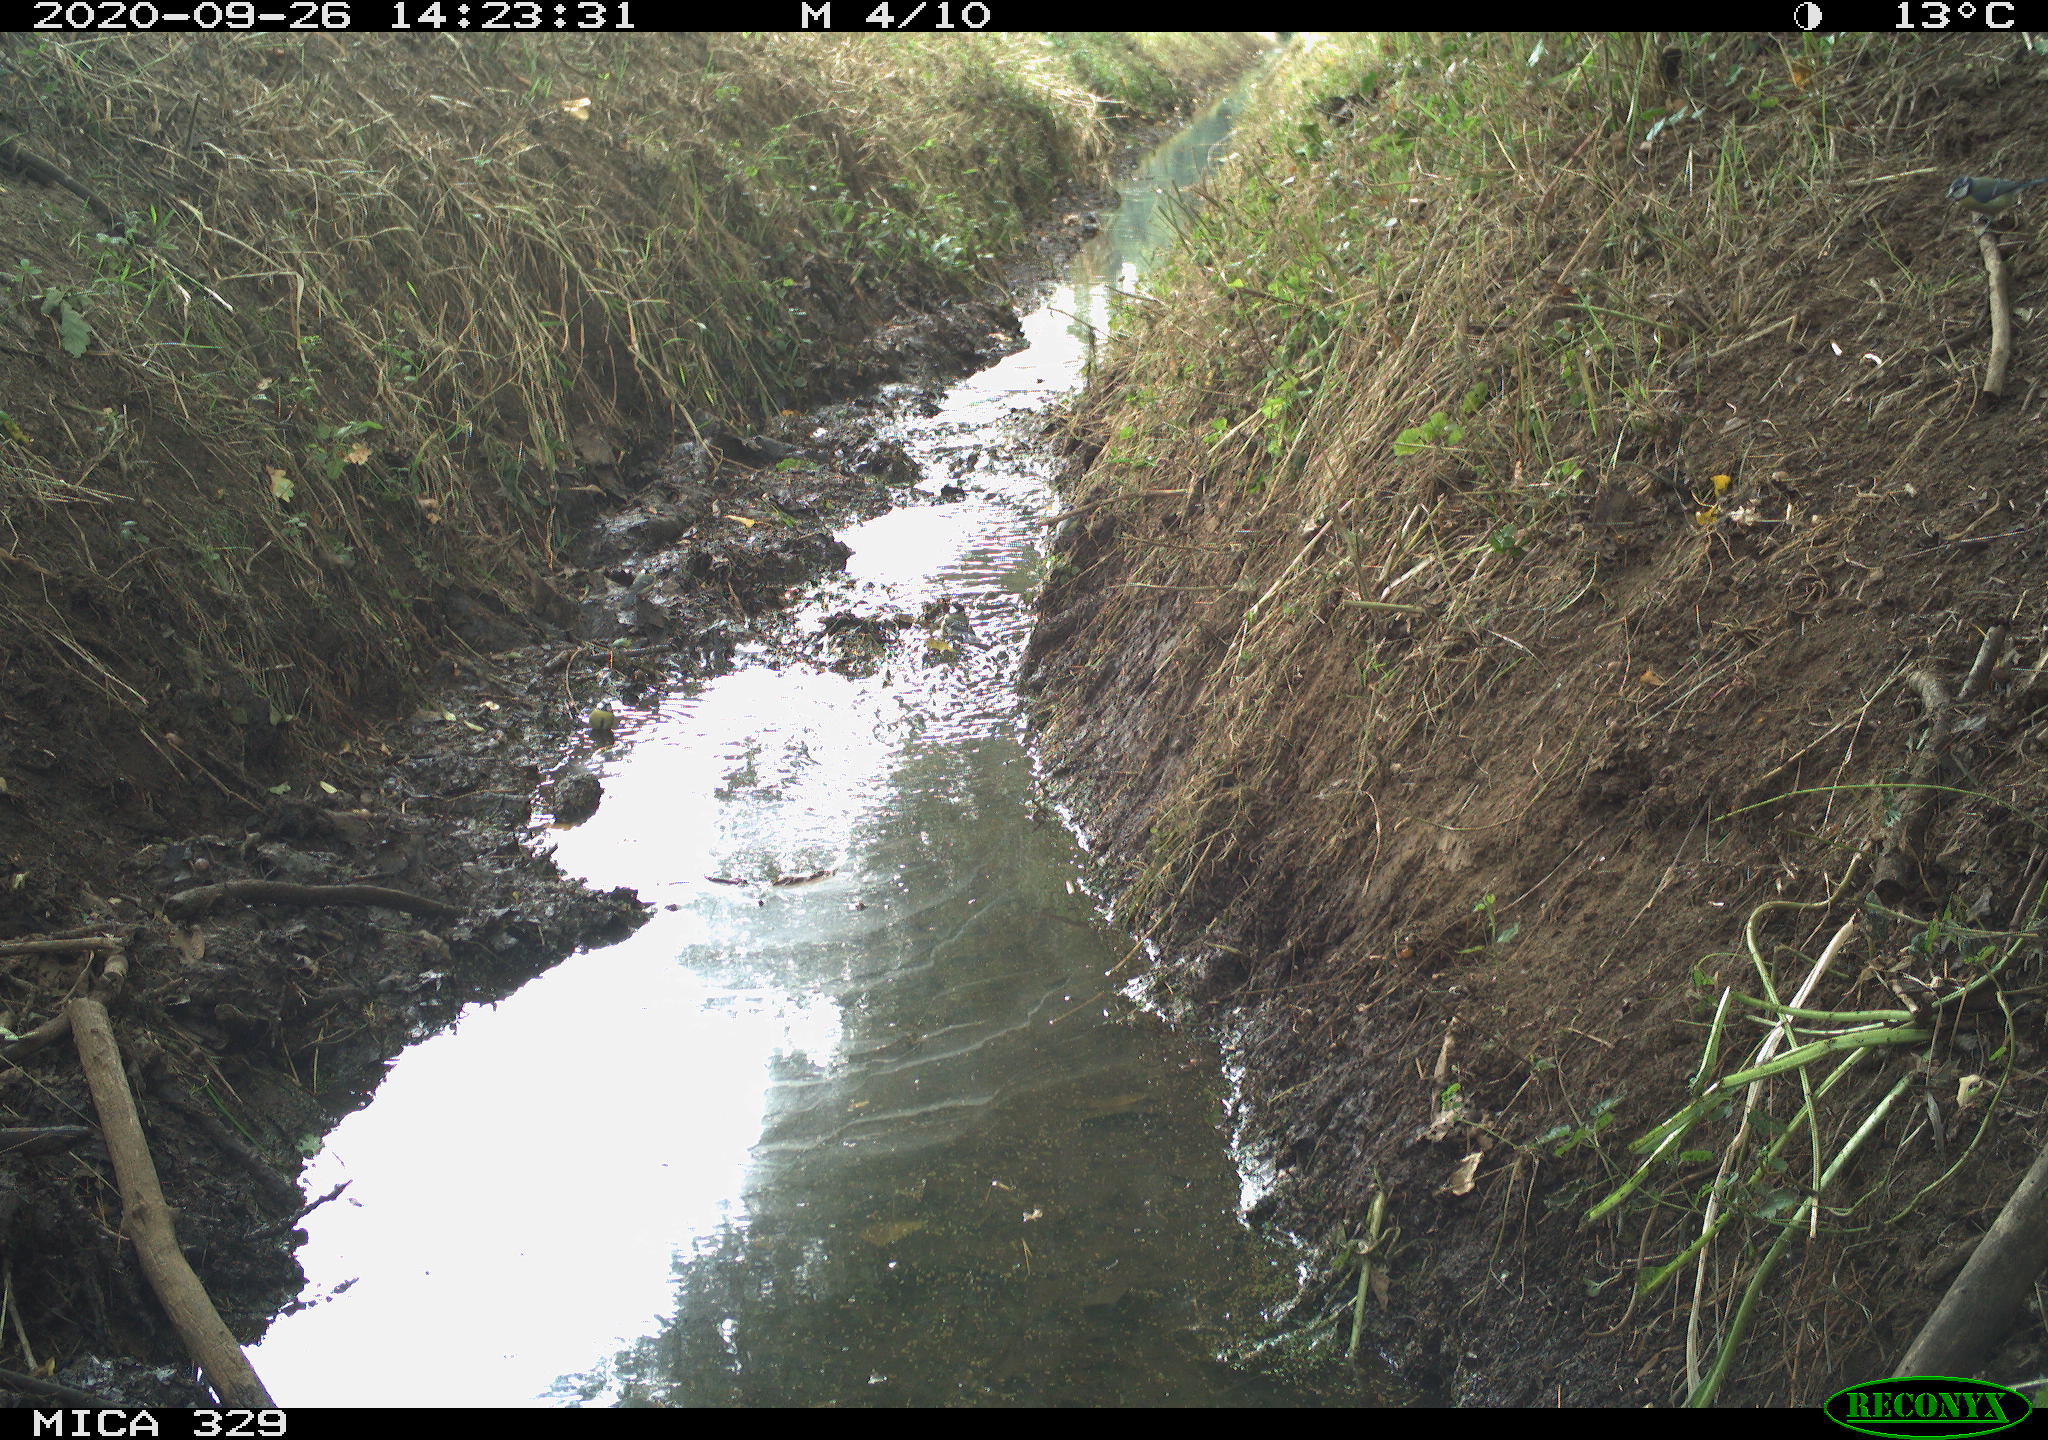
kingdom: Animalia
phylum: Chordata
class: Aves
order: Passeriformes
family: Paridae
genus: Cyanistes
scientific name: Cyanistes caeruleus
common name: Eurasian blue tit
